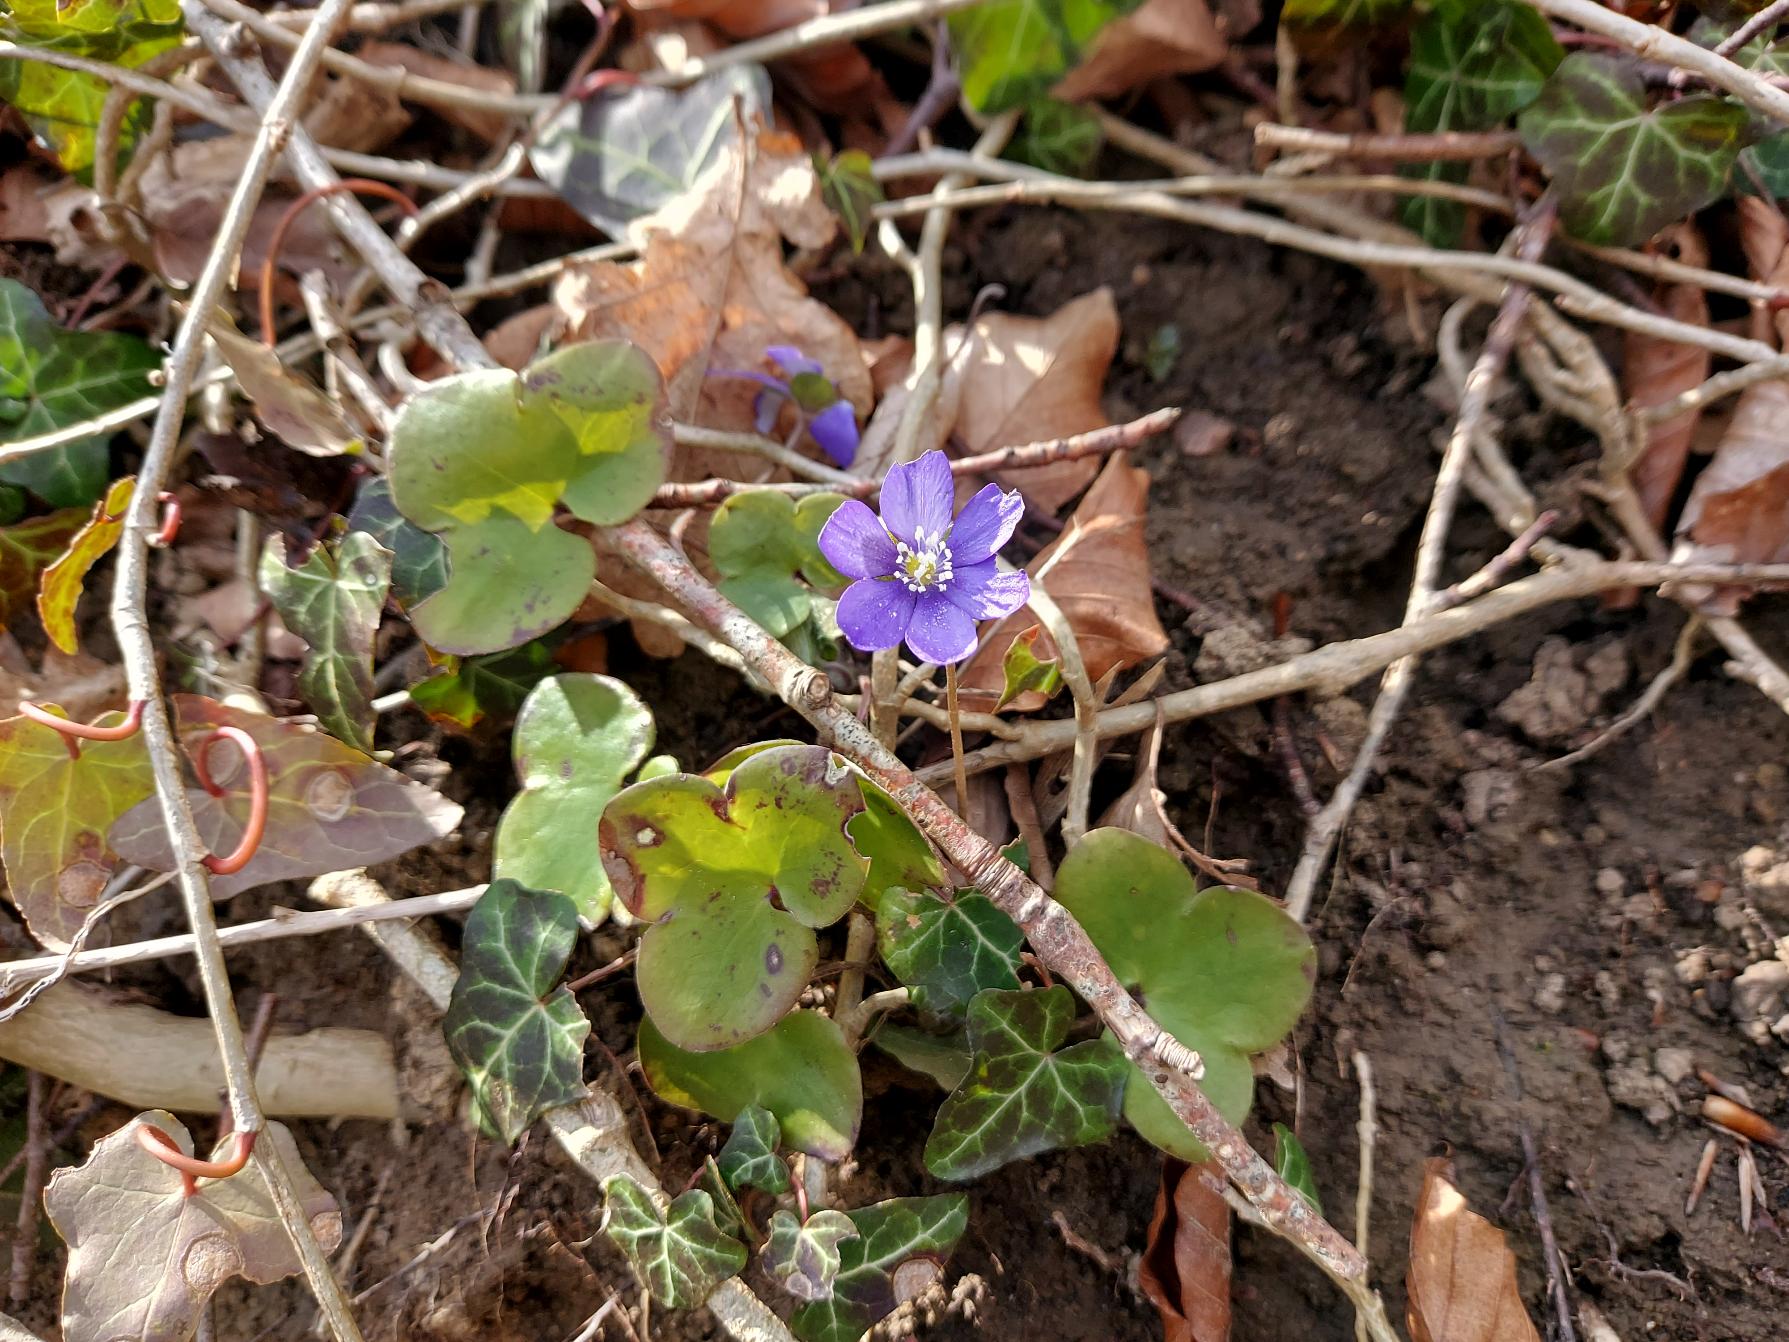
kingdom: Plantae
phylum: Tracheophyta
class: Magnoliopsida
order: Ranunculales
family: Ranunculaceae
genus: Hepatica
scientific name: Hepatica nobilis
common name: Blå anemone
